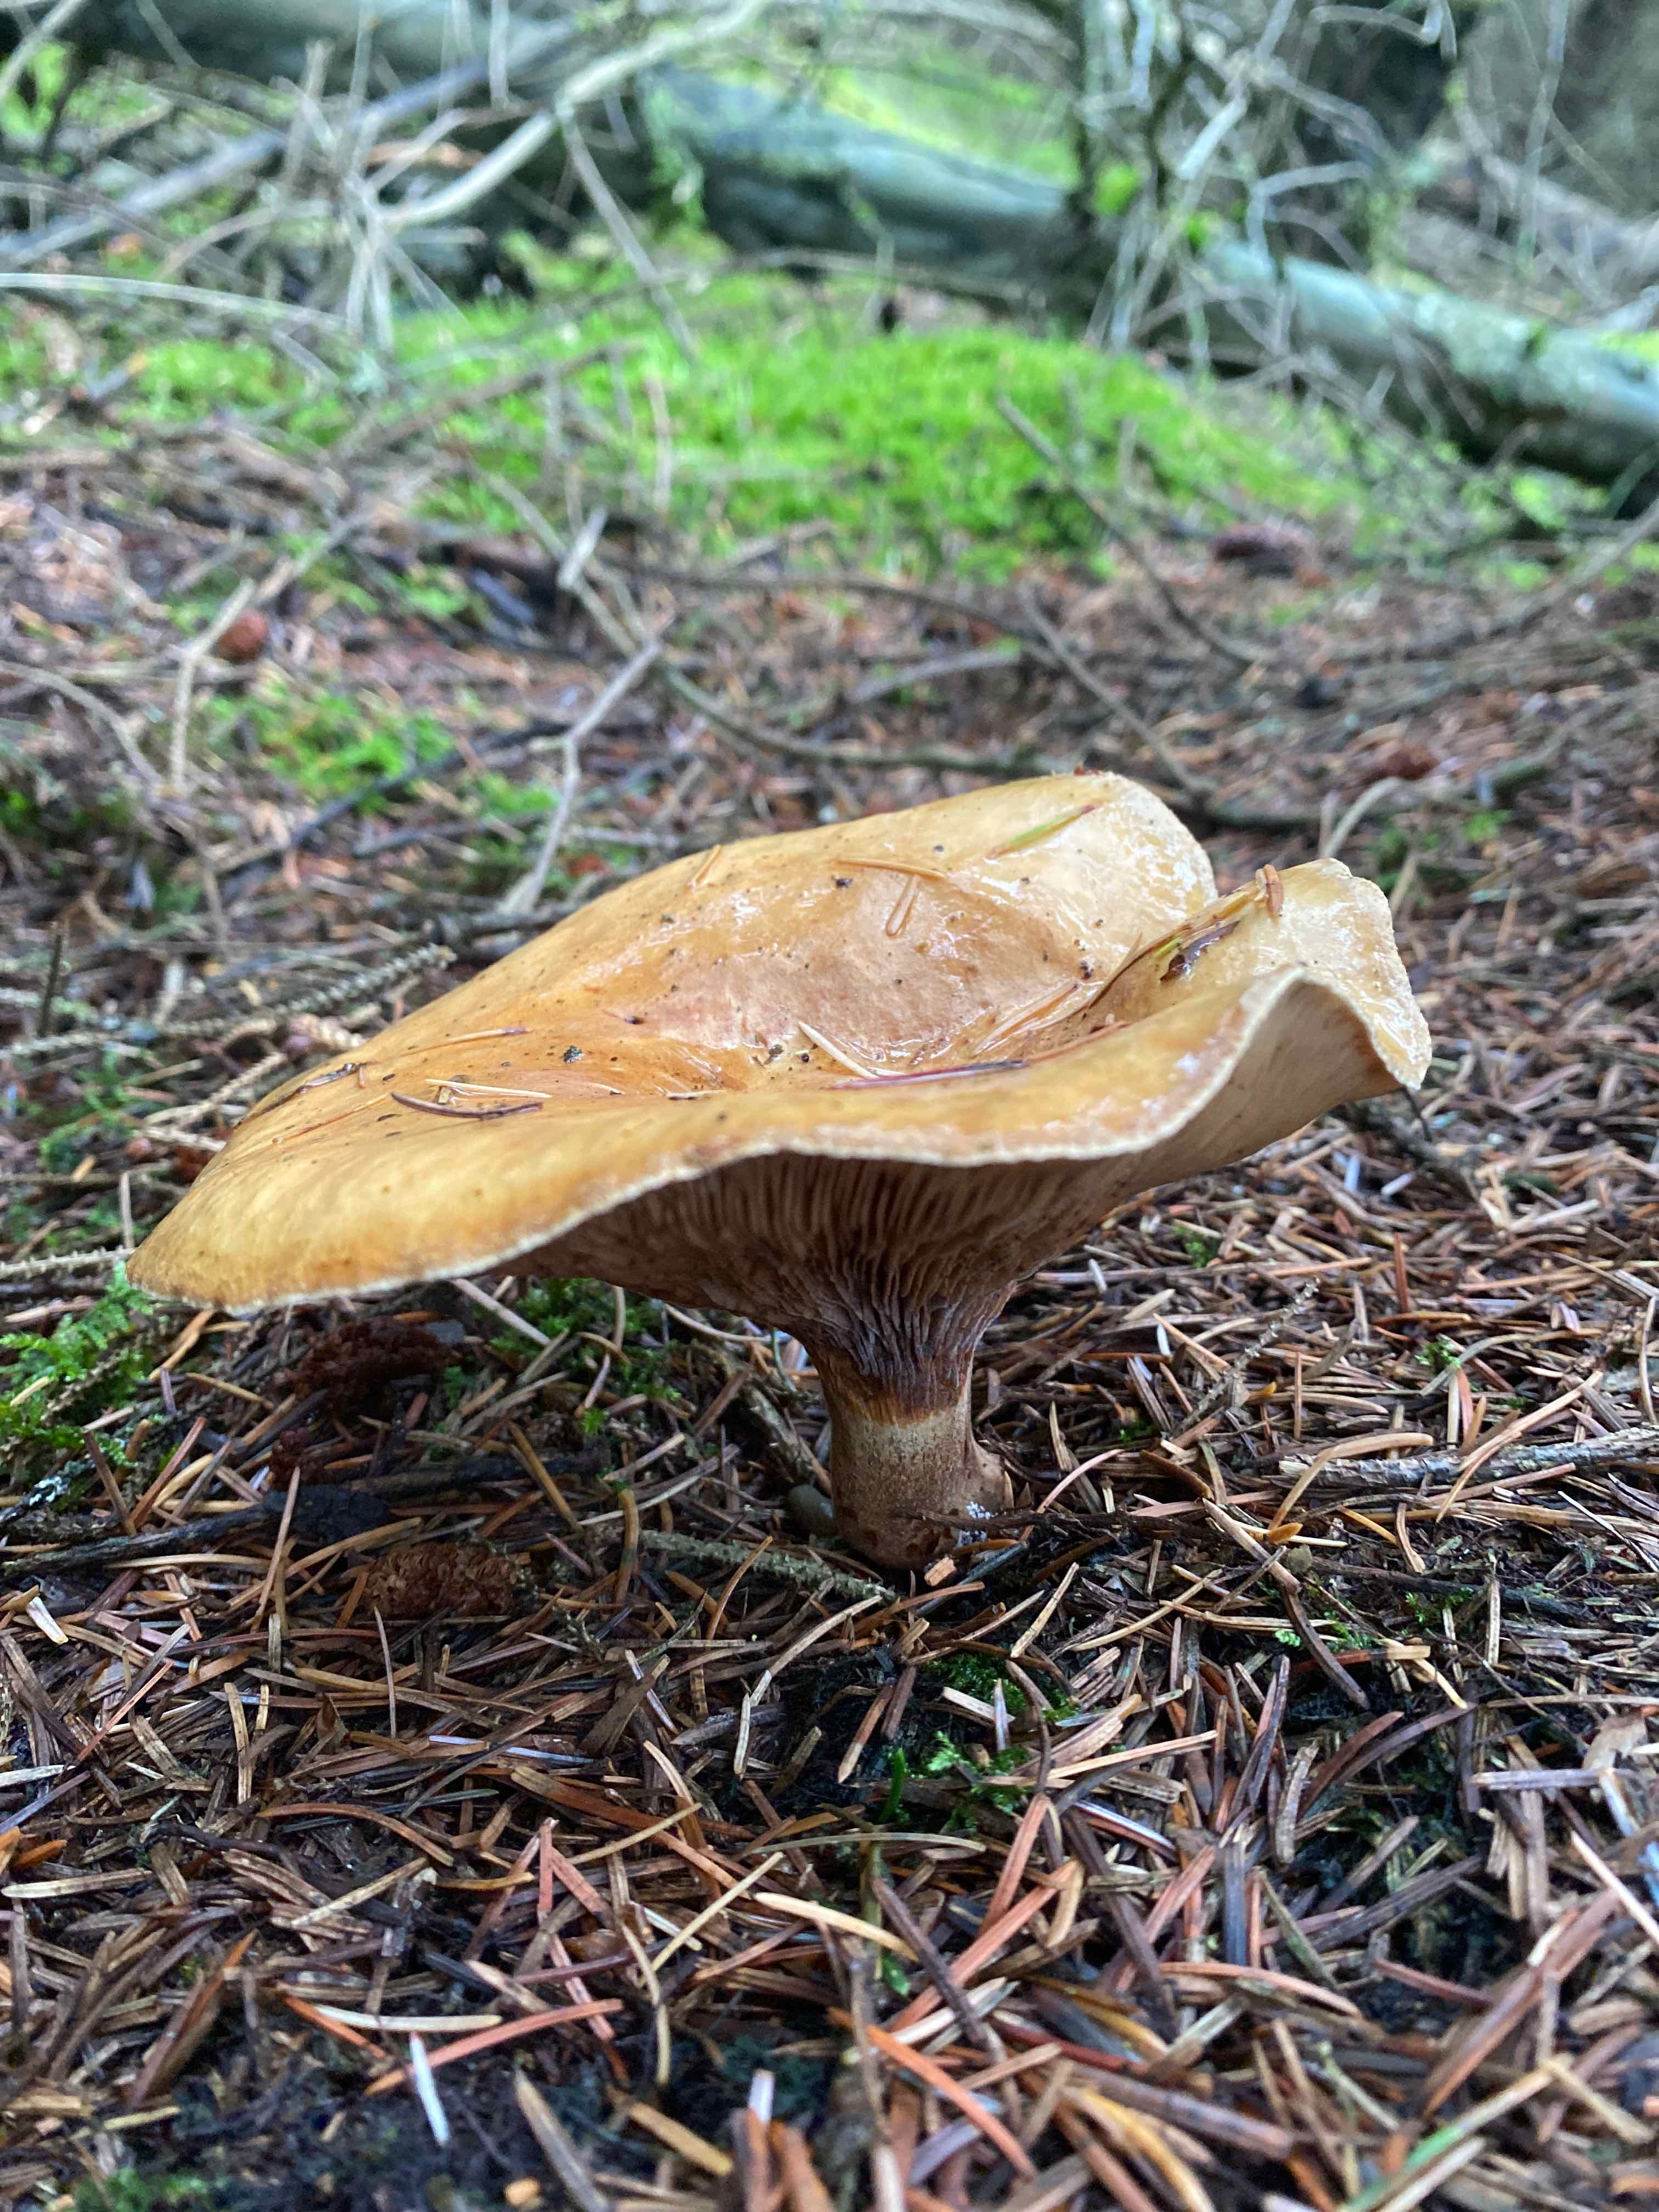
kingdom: Fungi
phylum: Basidiomycota
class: Agaricomycetes
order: Boletales
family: Paxillaceae
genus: Paxillus
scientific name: Paxillus involutus
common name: almindelig netbladhat
